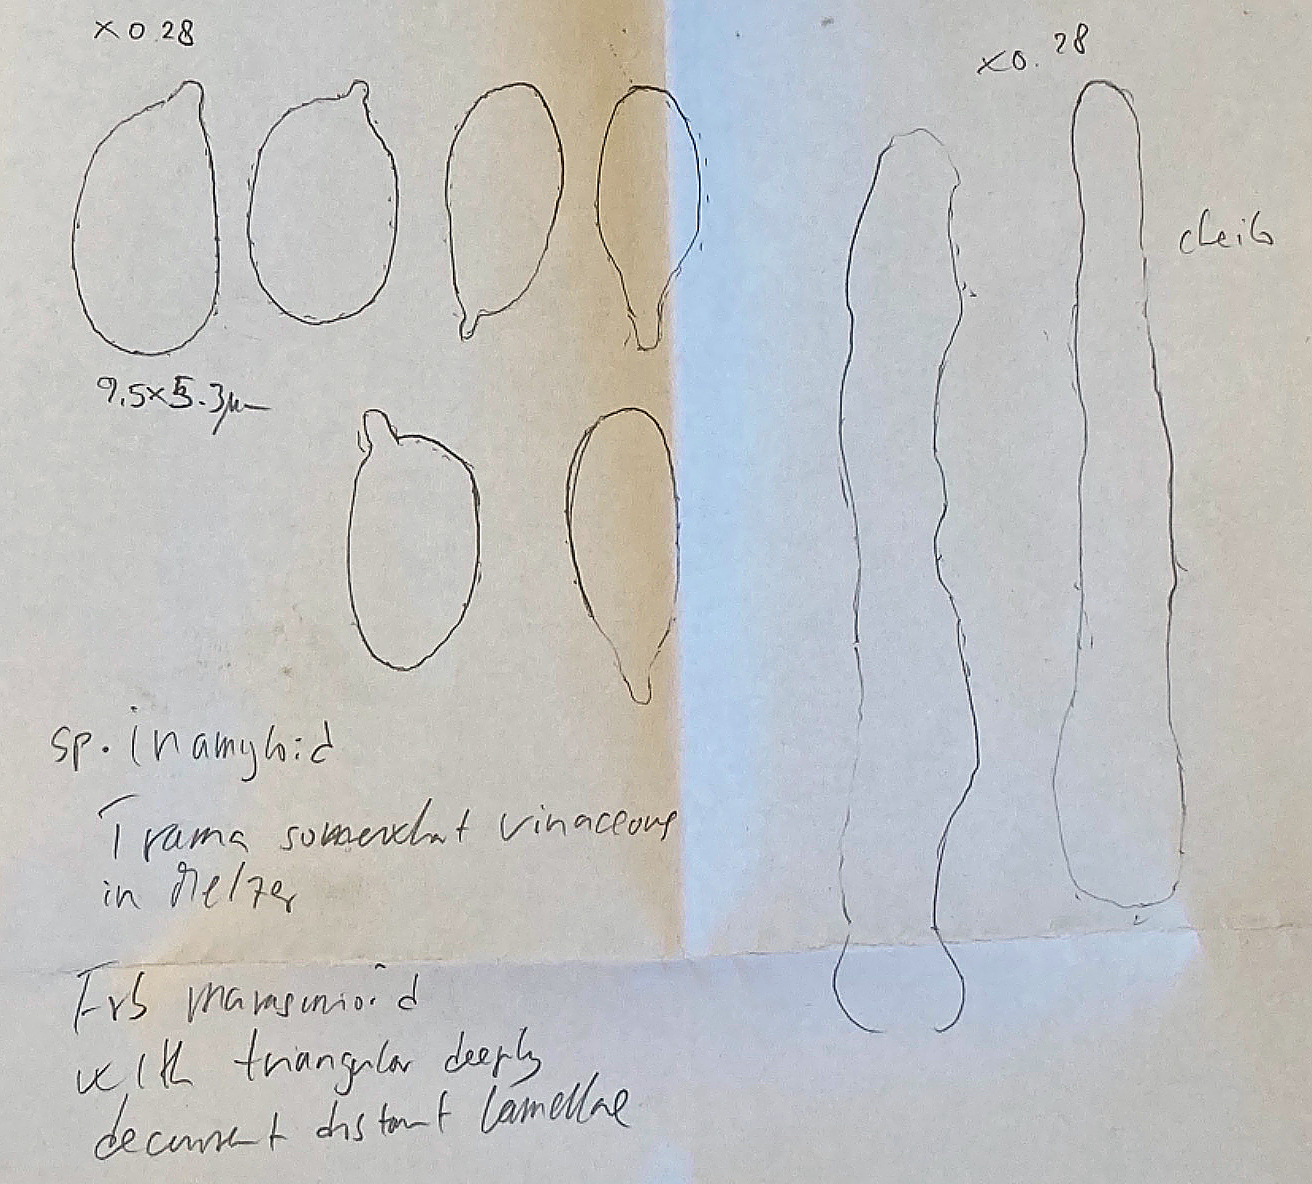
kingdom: Fungi
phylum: Basidiomycota
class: Agaricomycetes
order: Agaricales
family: Porotheleaceae
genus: Phloeomana
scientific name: Phloeomana speirea
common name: kvist-huesvamp
